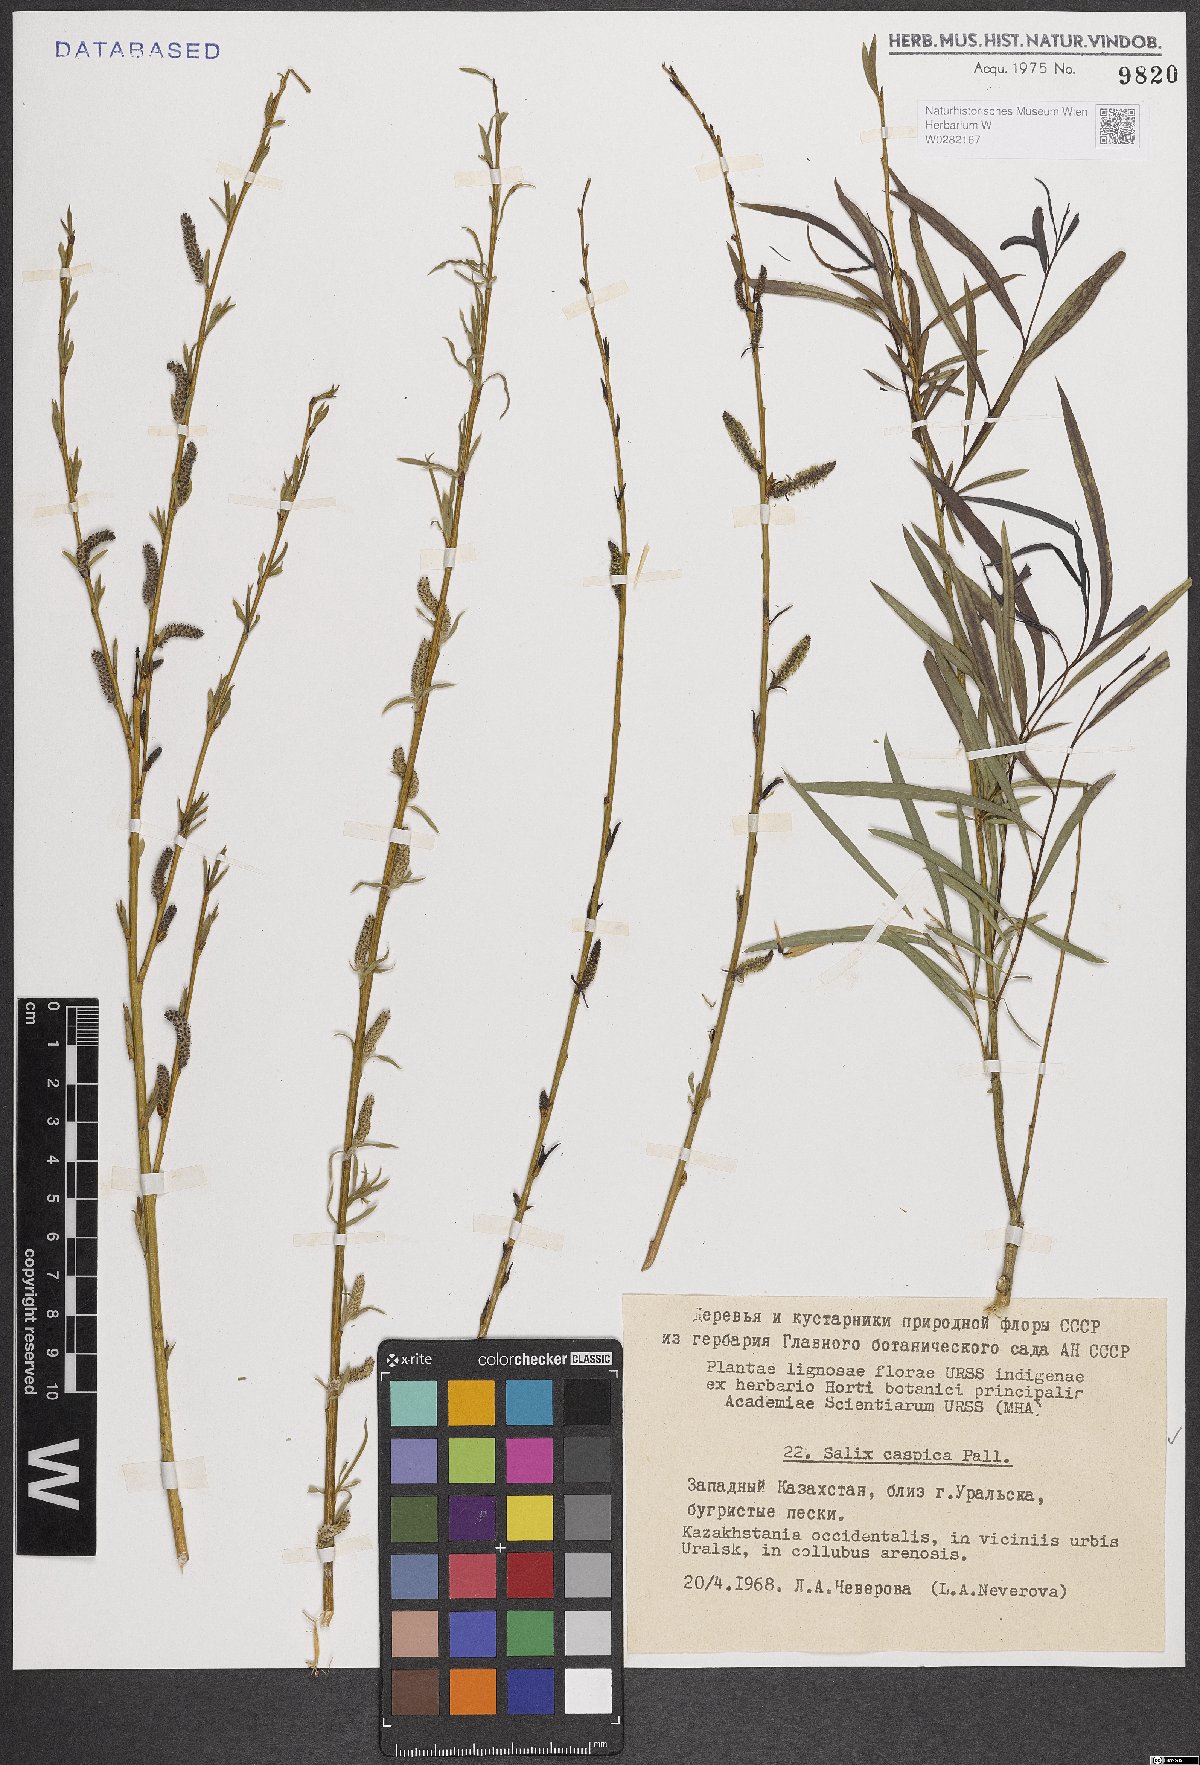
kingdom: Plantae
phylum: Tracheophyta
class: Magnoliopsida
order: Malpighiales
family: Salicaceae
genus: Salix
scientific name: Salix caspica
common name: Caspian willow
